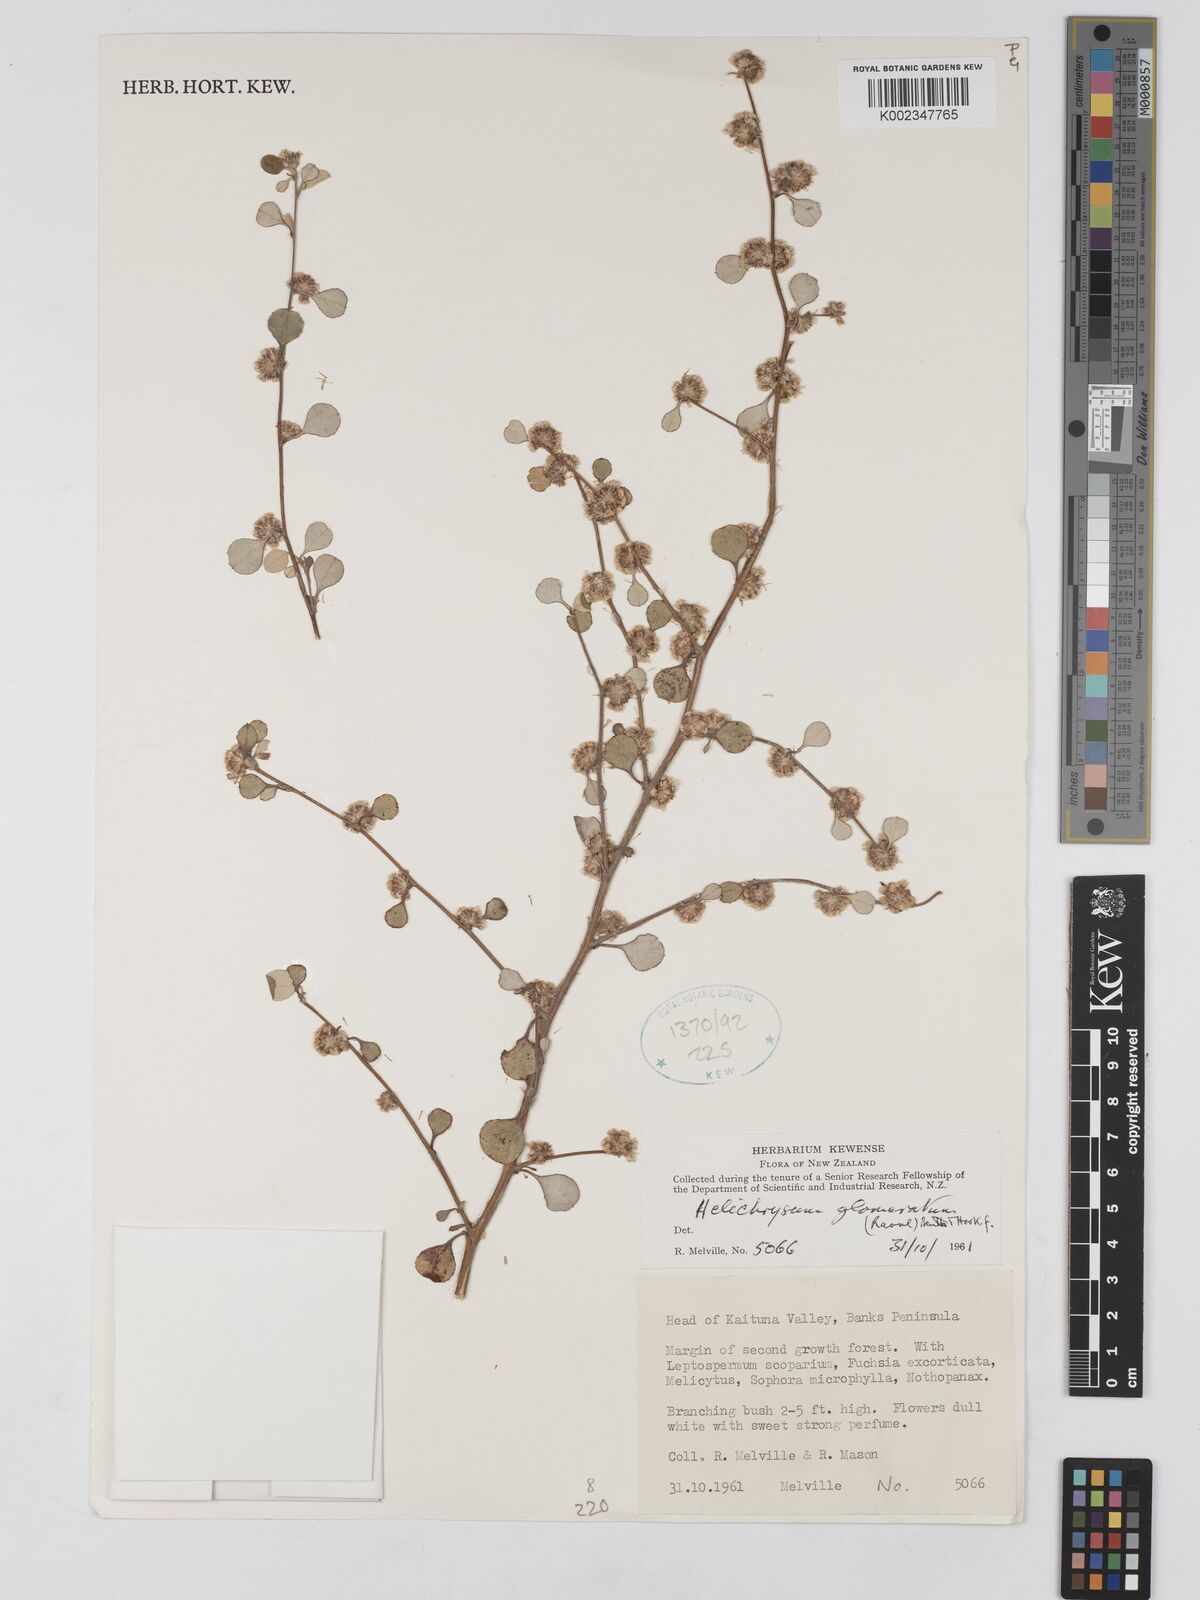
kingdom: Plantae
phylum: Tracheophyta
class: Magnoliopsida
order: Asterales
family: Asteraceae
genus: Ozothamnus
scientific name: Ozothamnus glomeratus
